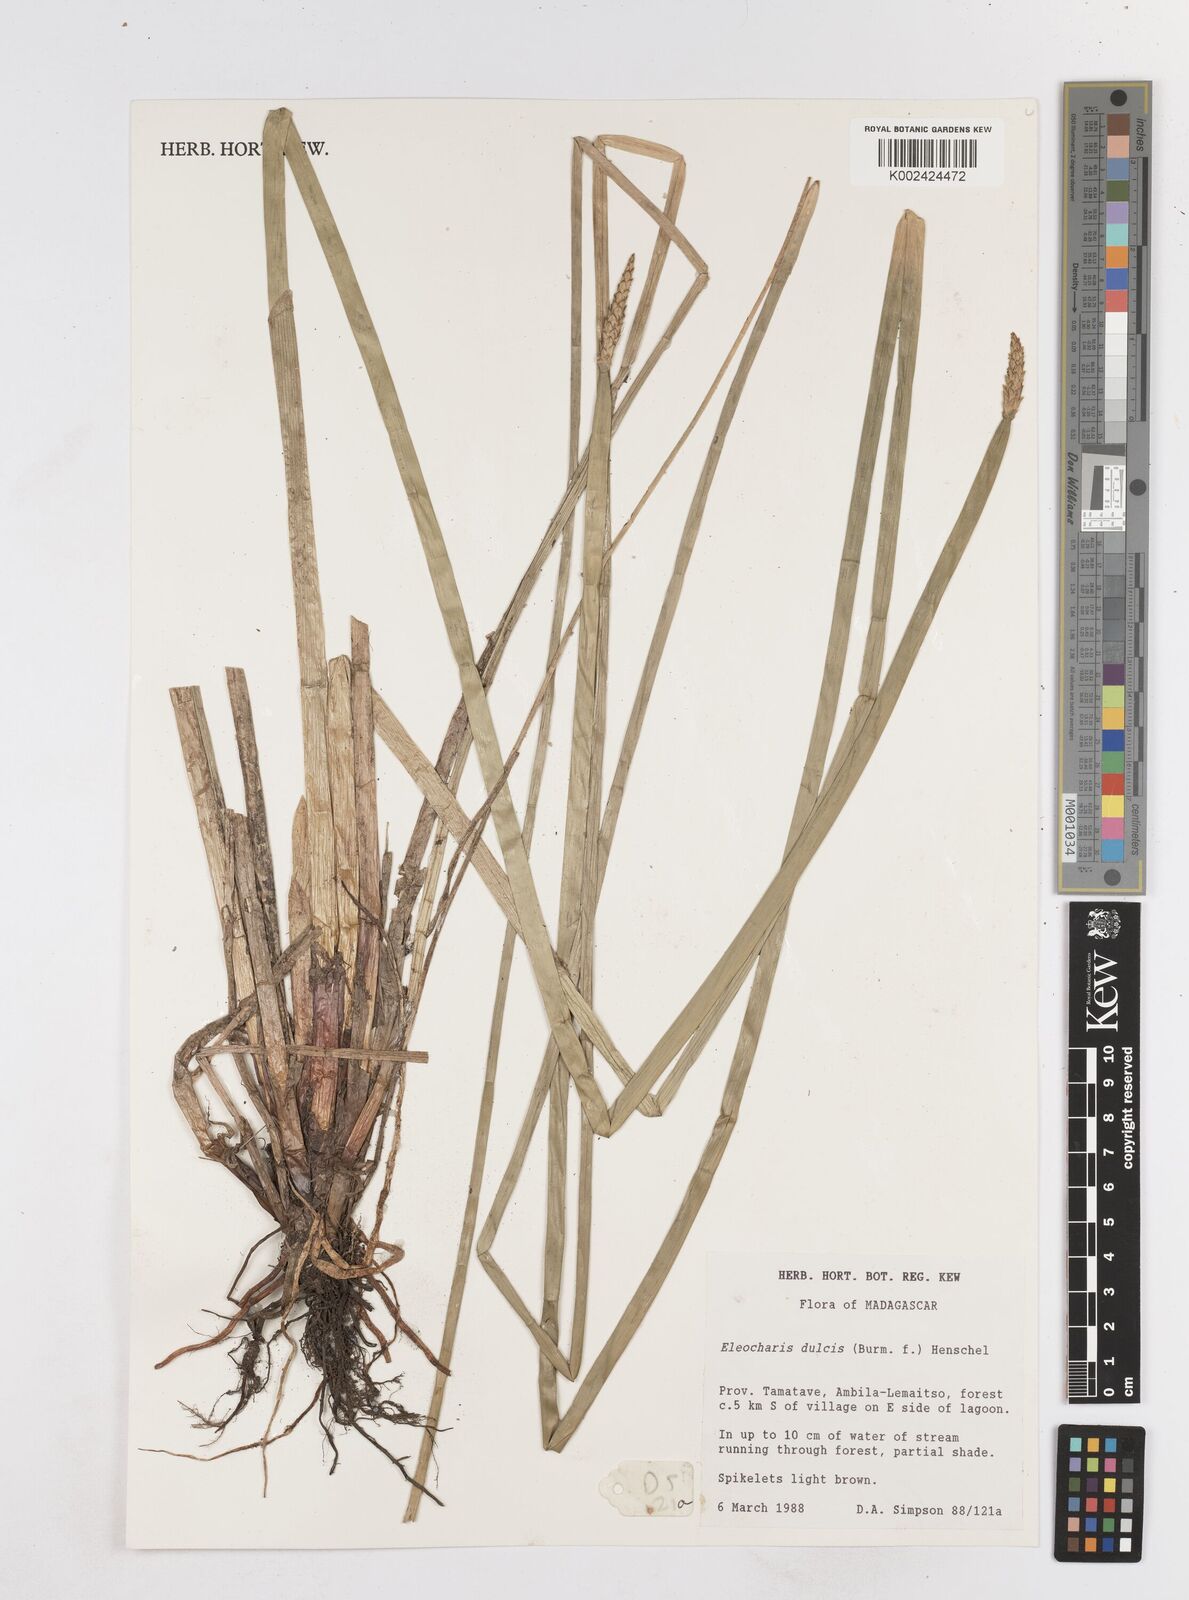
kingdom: Plantae
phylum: Tracheophyta
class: Liliopsida
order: Poales
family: Cyperaceae
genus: Eleocharis
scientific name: Eleocharis dulcis
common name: Chinese water chestnut
